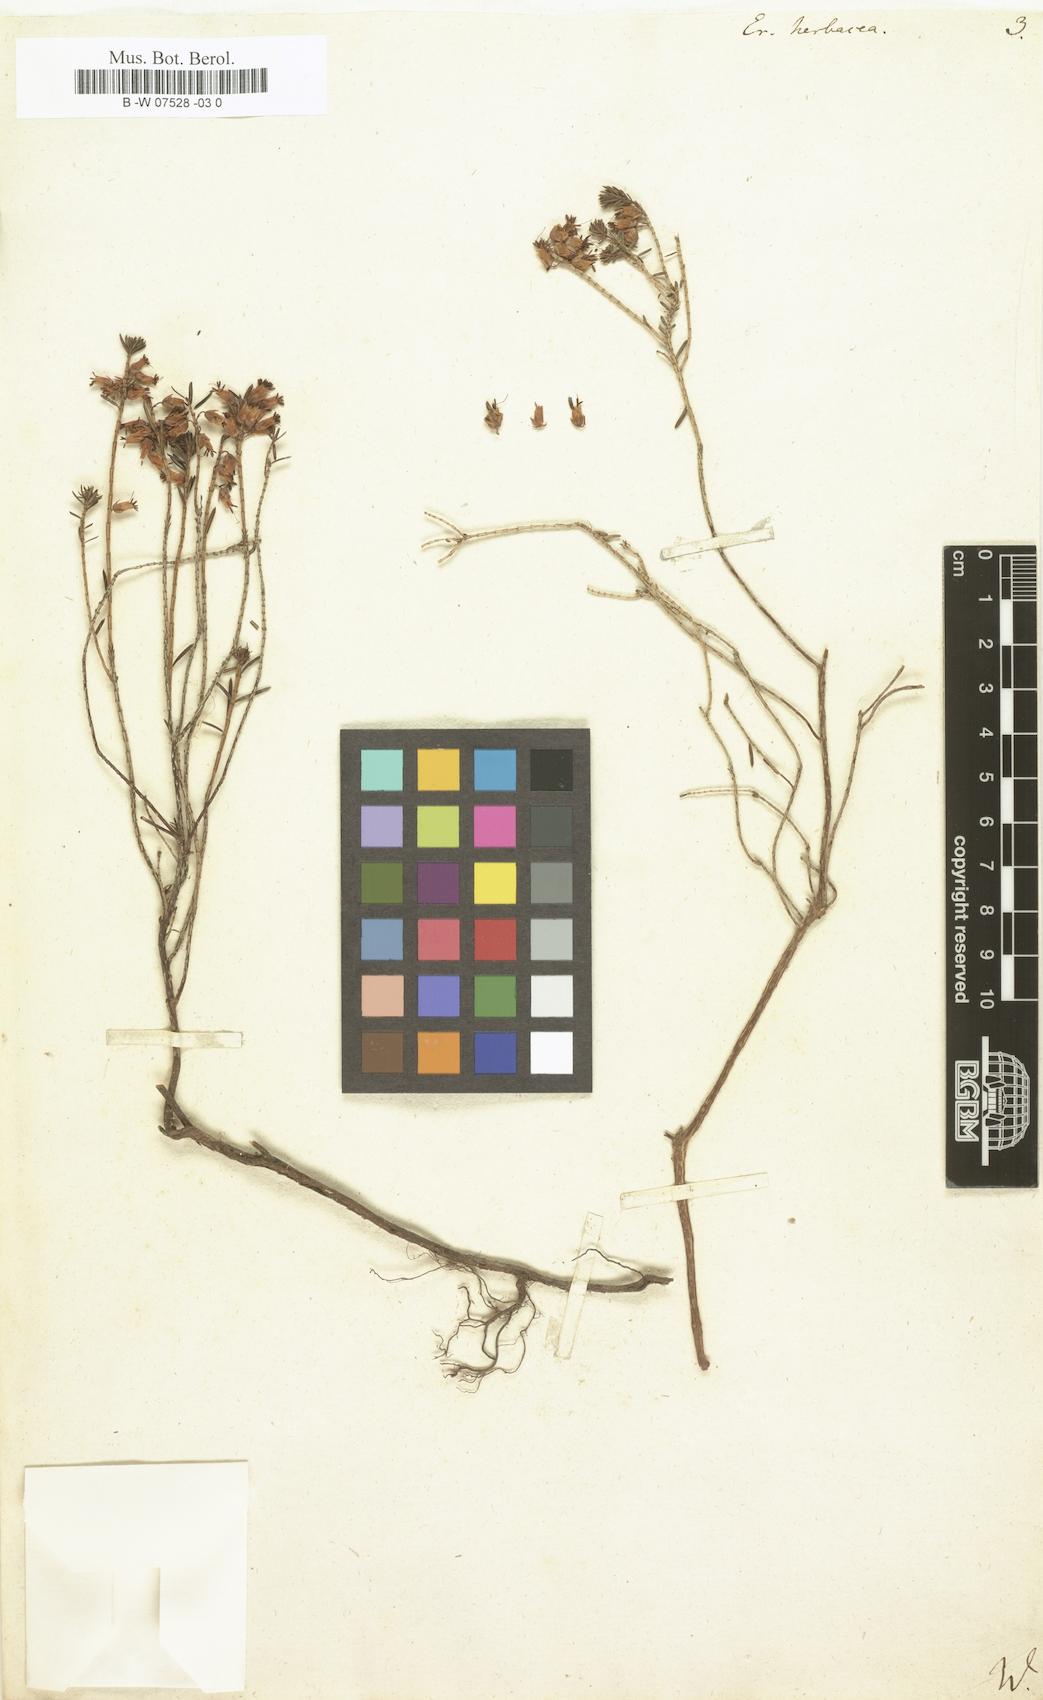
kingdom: Plantae
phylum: Tracheophyta
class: Magnoliopsida
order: Ericales
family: Ericaceae
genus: Calluna
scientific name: Calluna vulgaris
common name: Heather
